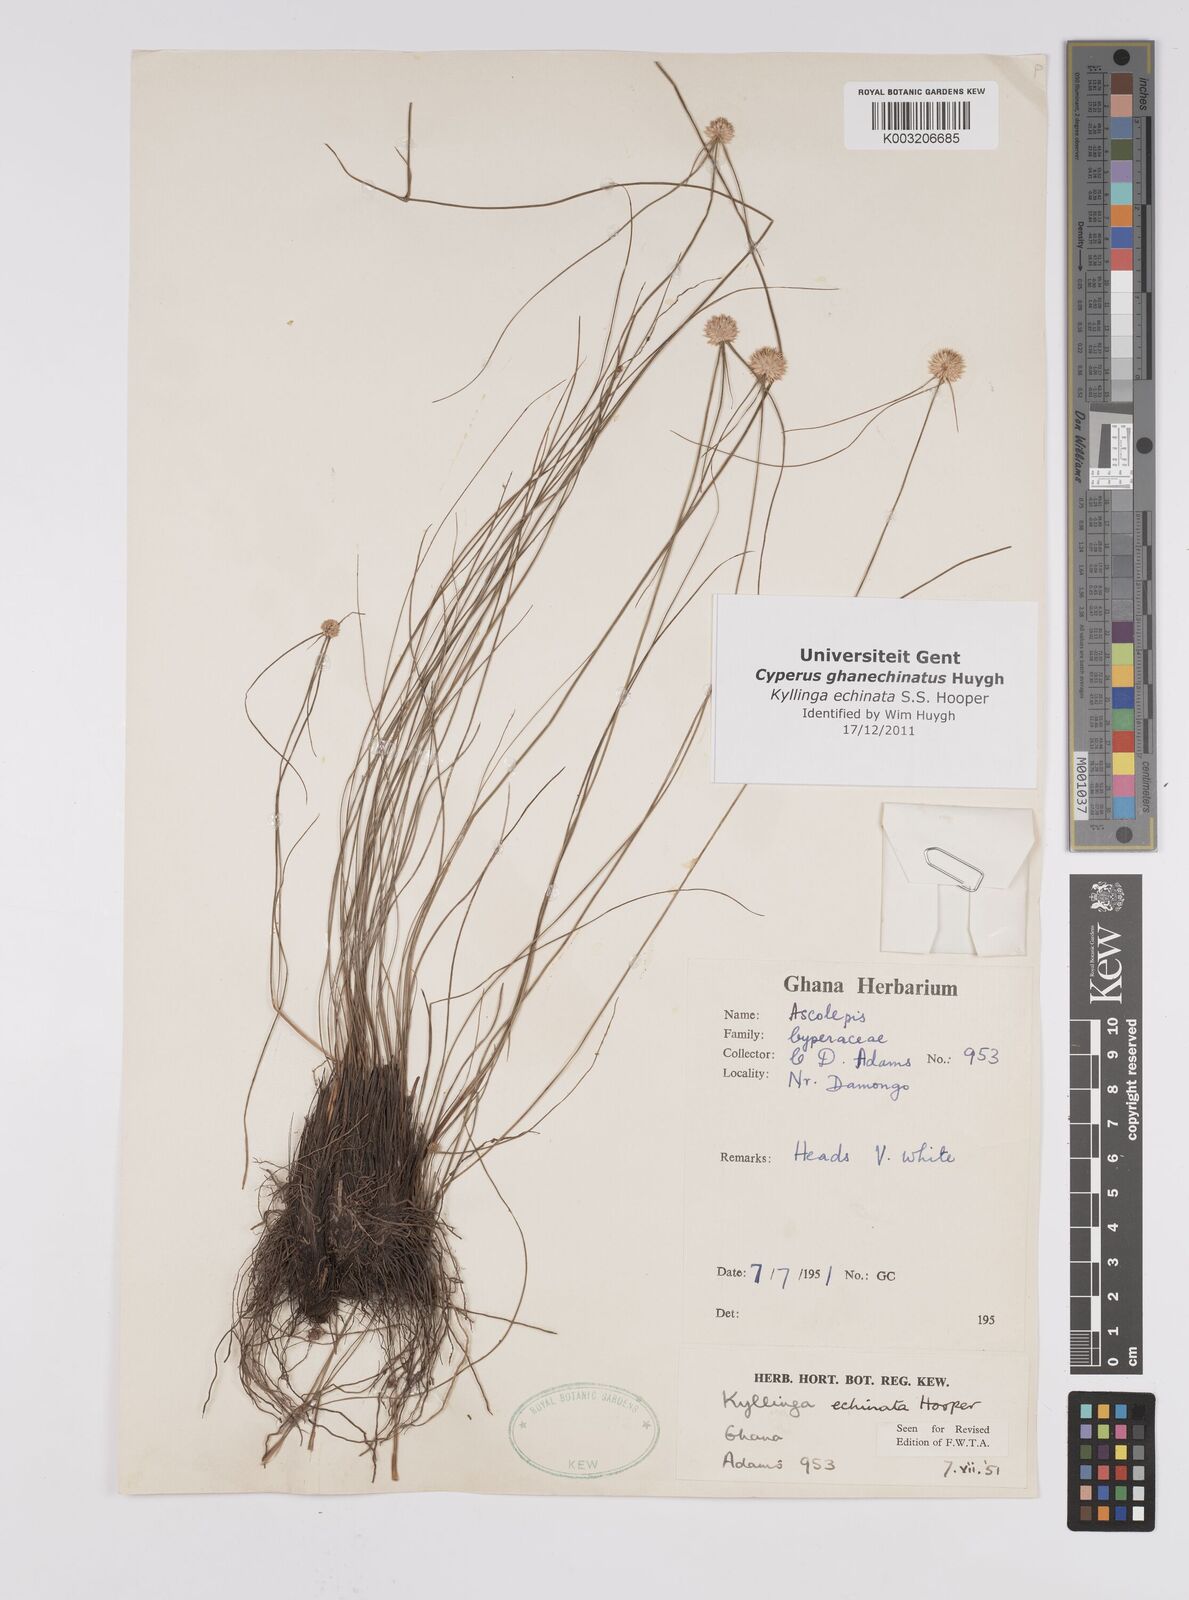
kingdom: Plantae
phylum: Tracheophyta
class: Liliopsida
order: Poales
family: Cyperaceae
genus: Cyperus
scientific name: Cyperus echinatus
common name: Teasel sedge
